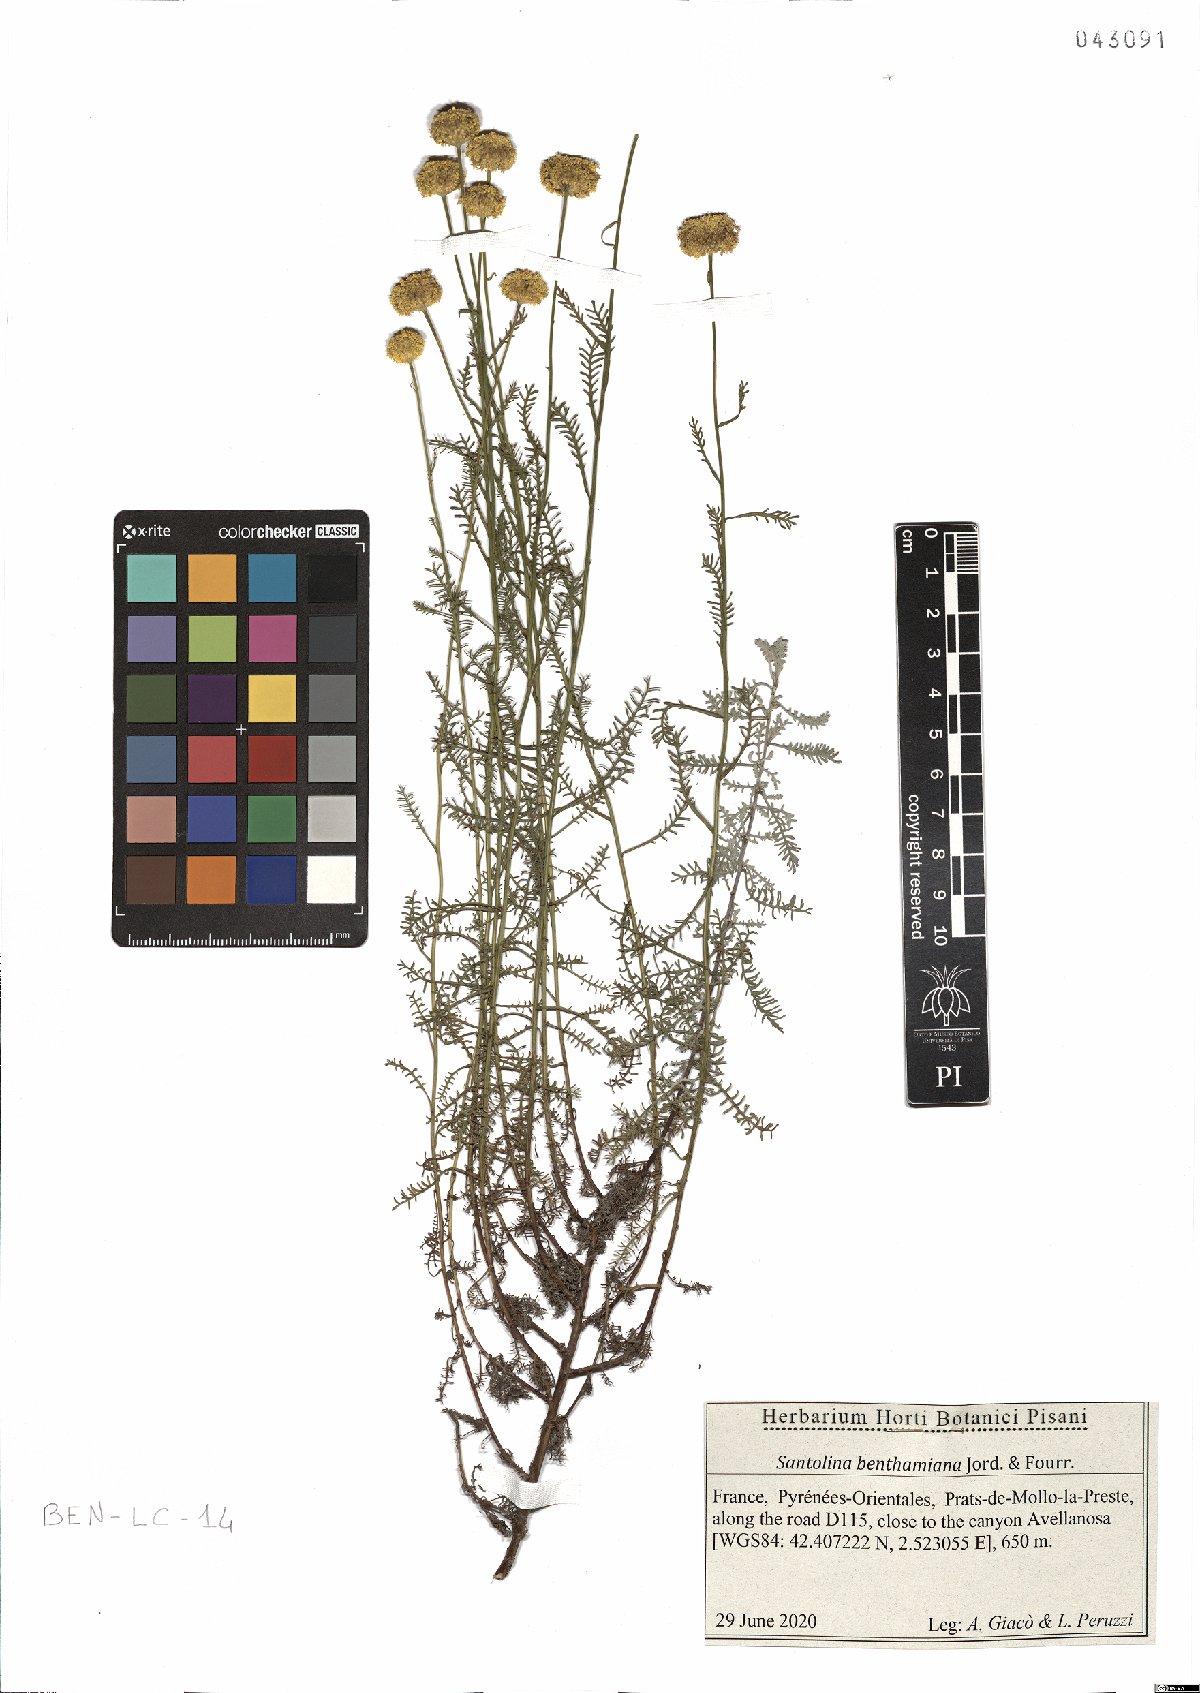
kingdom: Plantae
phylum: Tracheophyta
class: Magnoliopsida
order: Asterales
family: Asteraceae
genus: Santolina
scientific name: Santolina benthamiana
